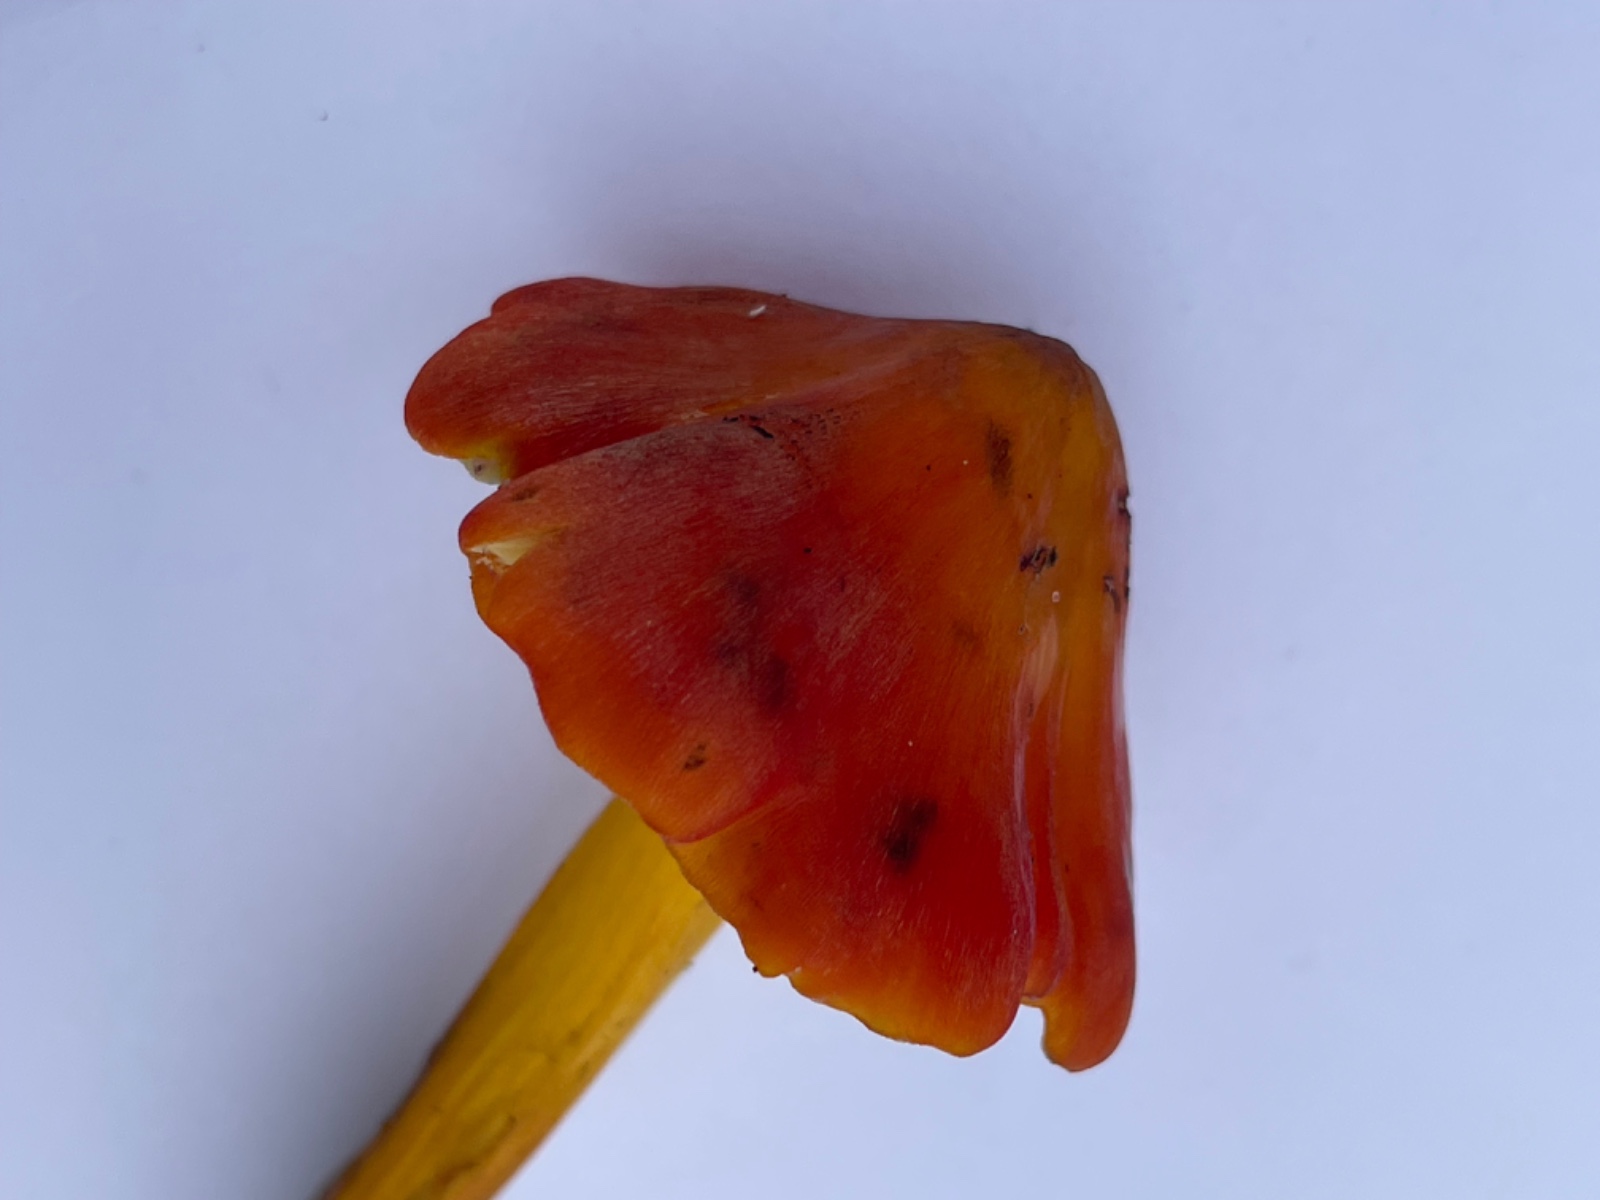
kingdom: Fungi
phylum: Basidiomycota
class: Agaricomycetes
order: Agaricales
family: Hygrophoraceae
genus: Hygrocybe
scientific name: Hygrocybe conica
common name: kegle-vokshat
